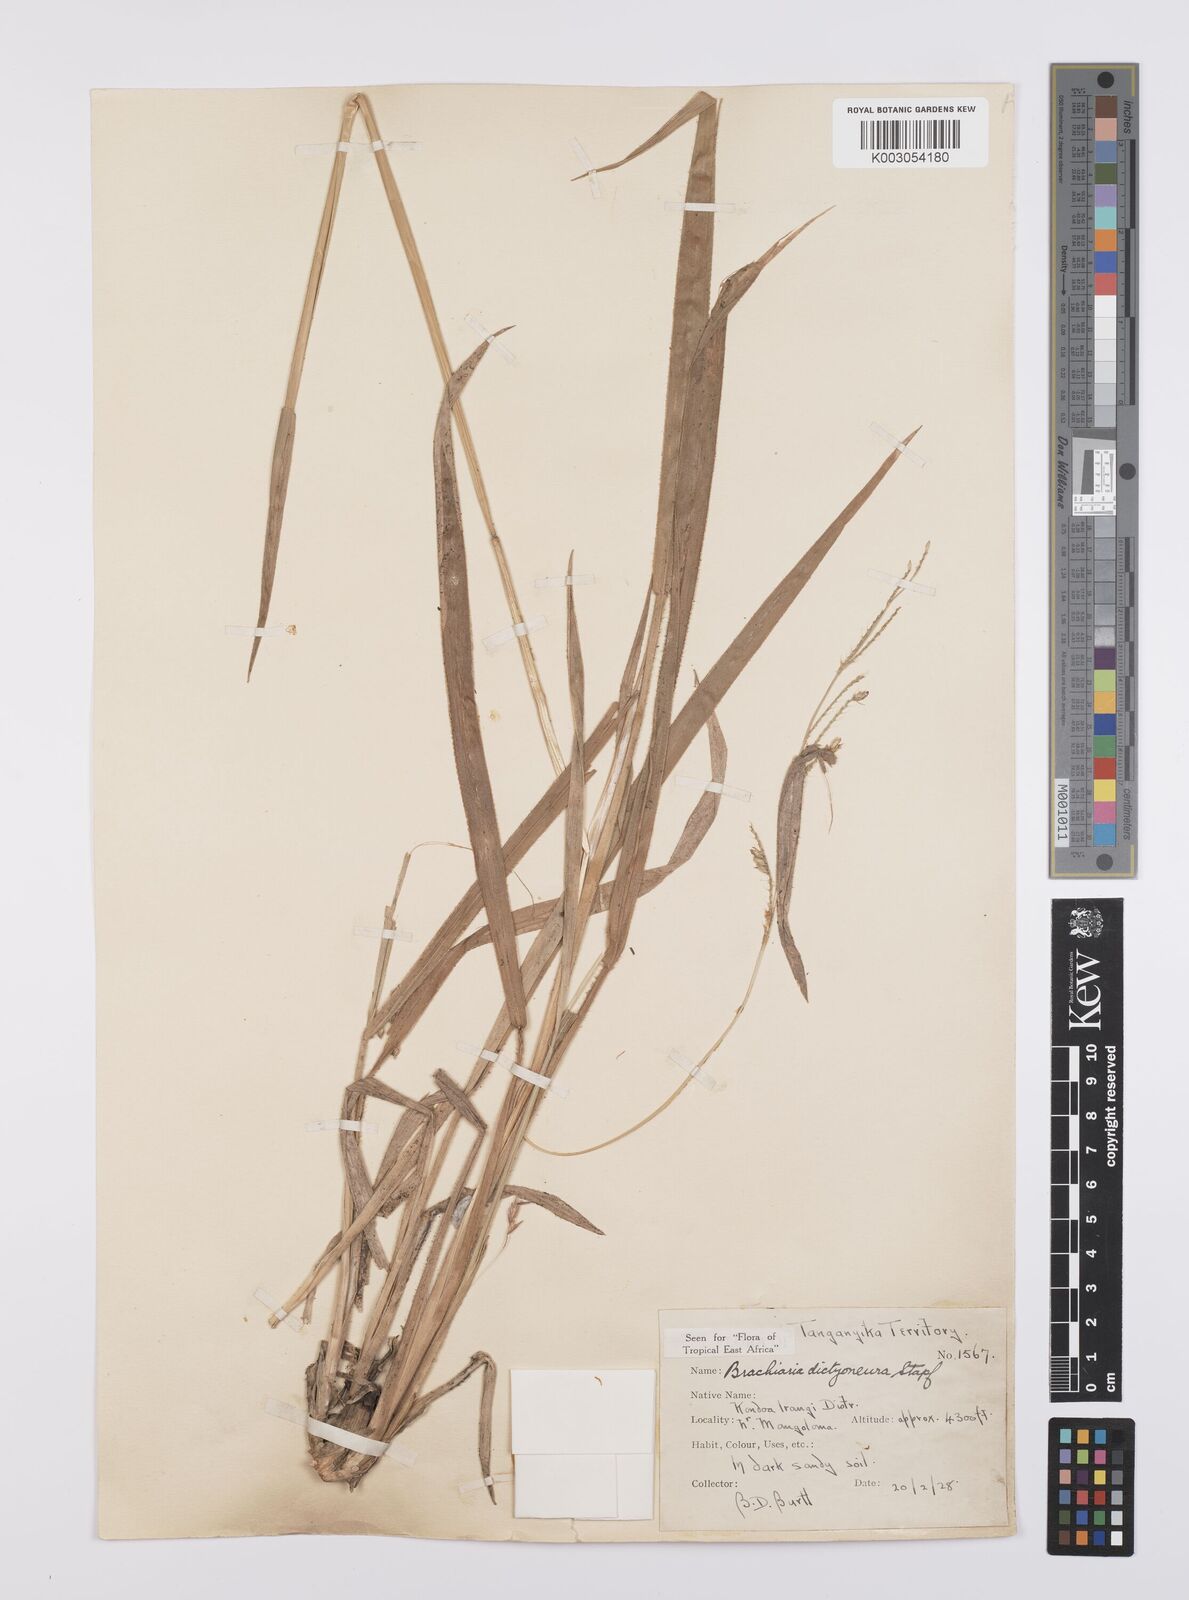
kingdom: Plantae
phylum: Tracheophyta
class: Liliopsida
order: Poales
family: Poaceae
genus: Urochloa
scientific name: Urochloa dictyoneura
